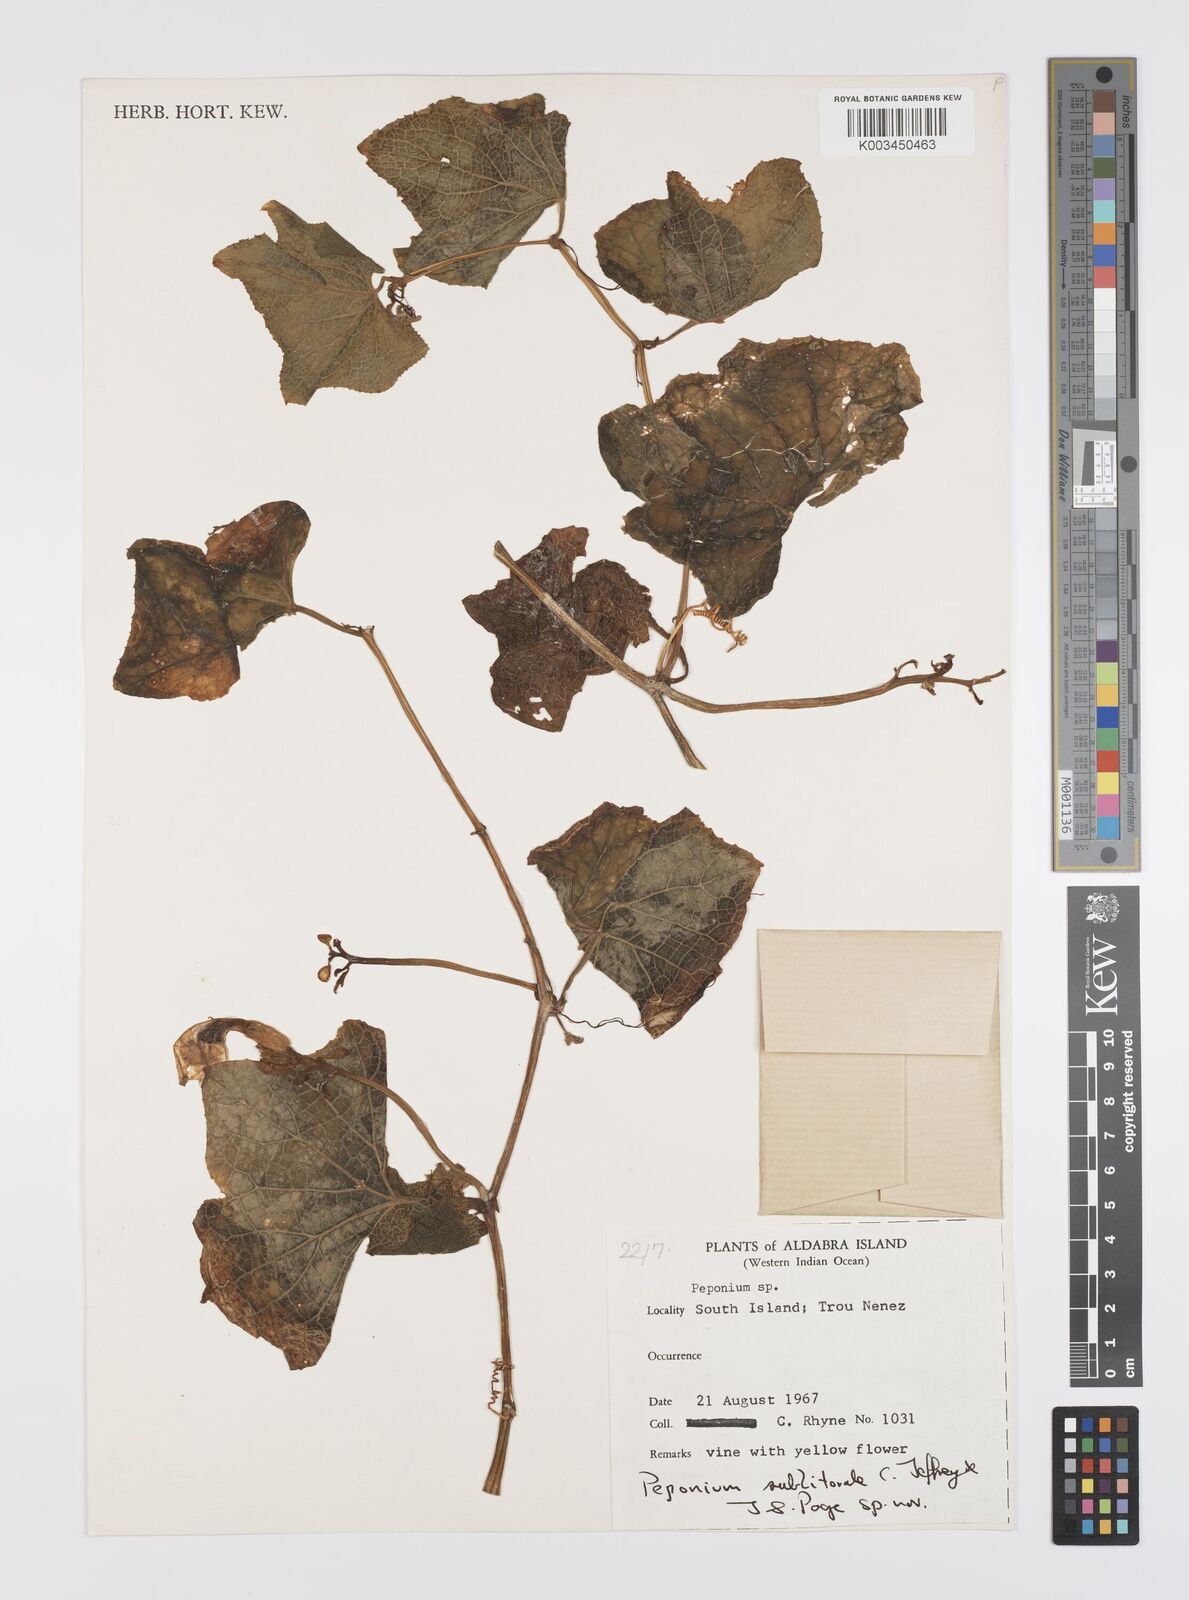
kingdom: Plantae
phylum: Tracheophyta
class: Magnoliopsida
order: Cucurbitales
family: Cucurbitaceae
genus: Peponium
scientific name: Peponium sublitorale
